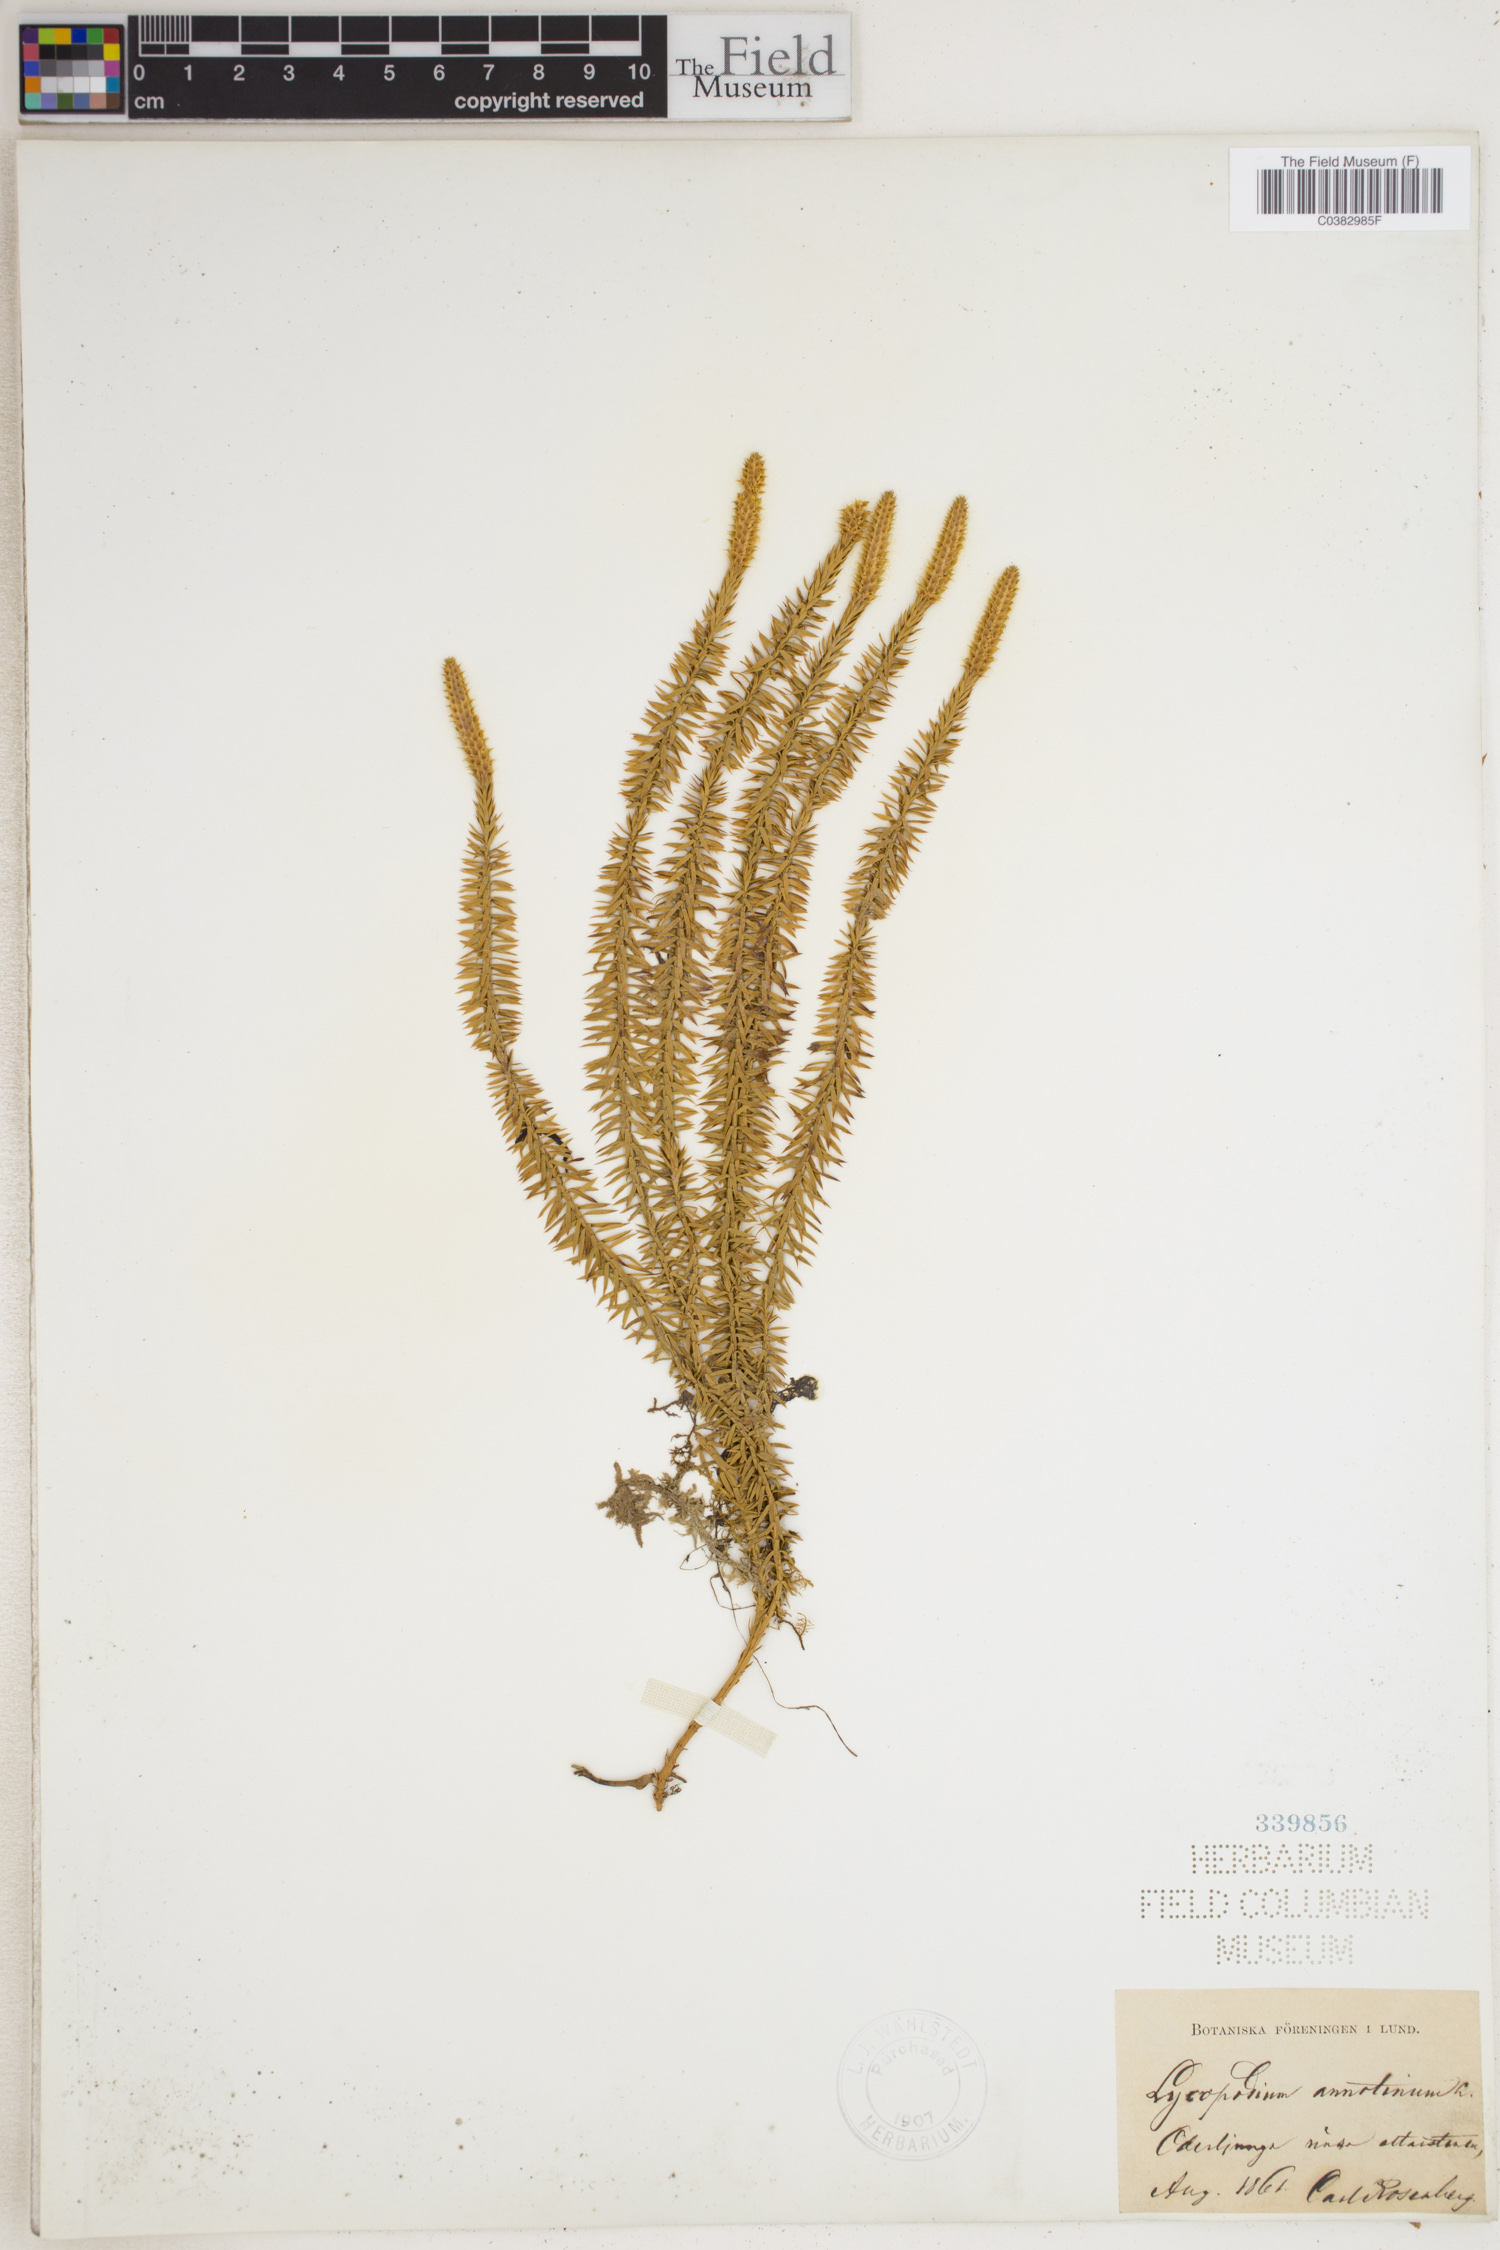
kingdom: Plantae
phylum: Tracheophyta
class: Lycopodiopsida
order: Lycopodiales
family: Lycopodiaceae
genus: Spinulum
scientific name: Spinulum annotinum
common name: Interrupted club-moss
